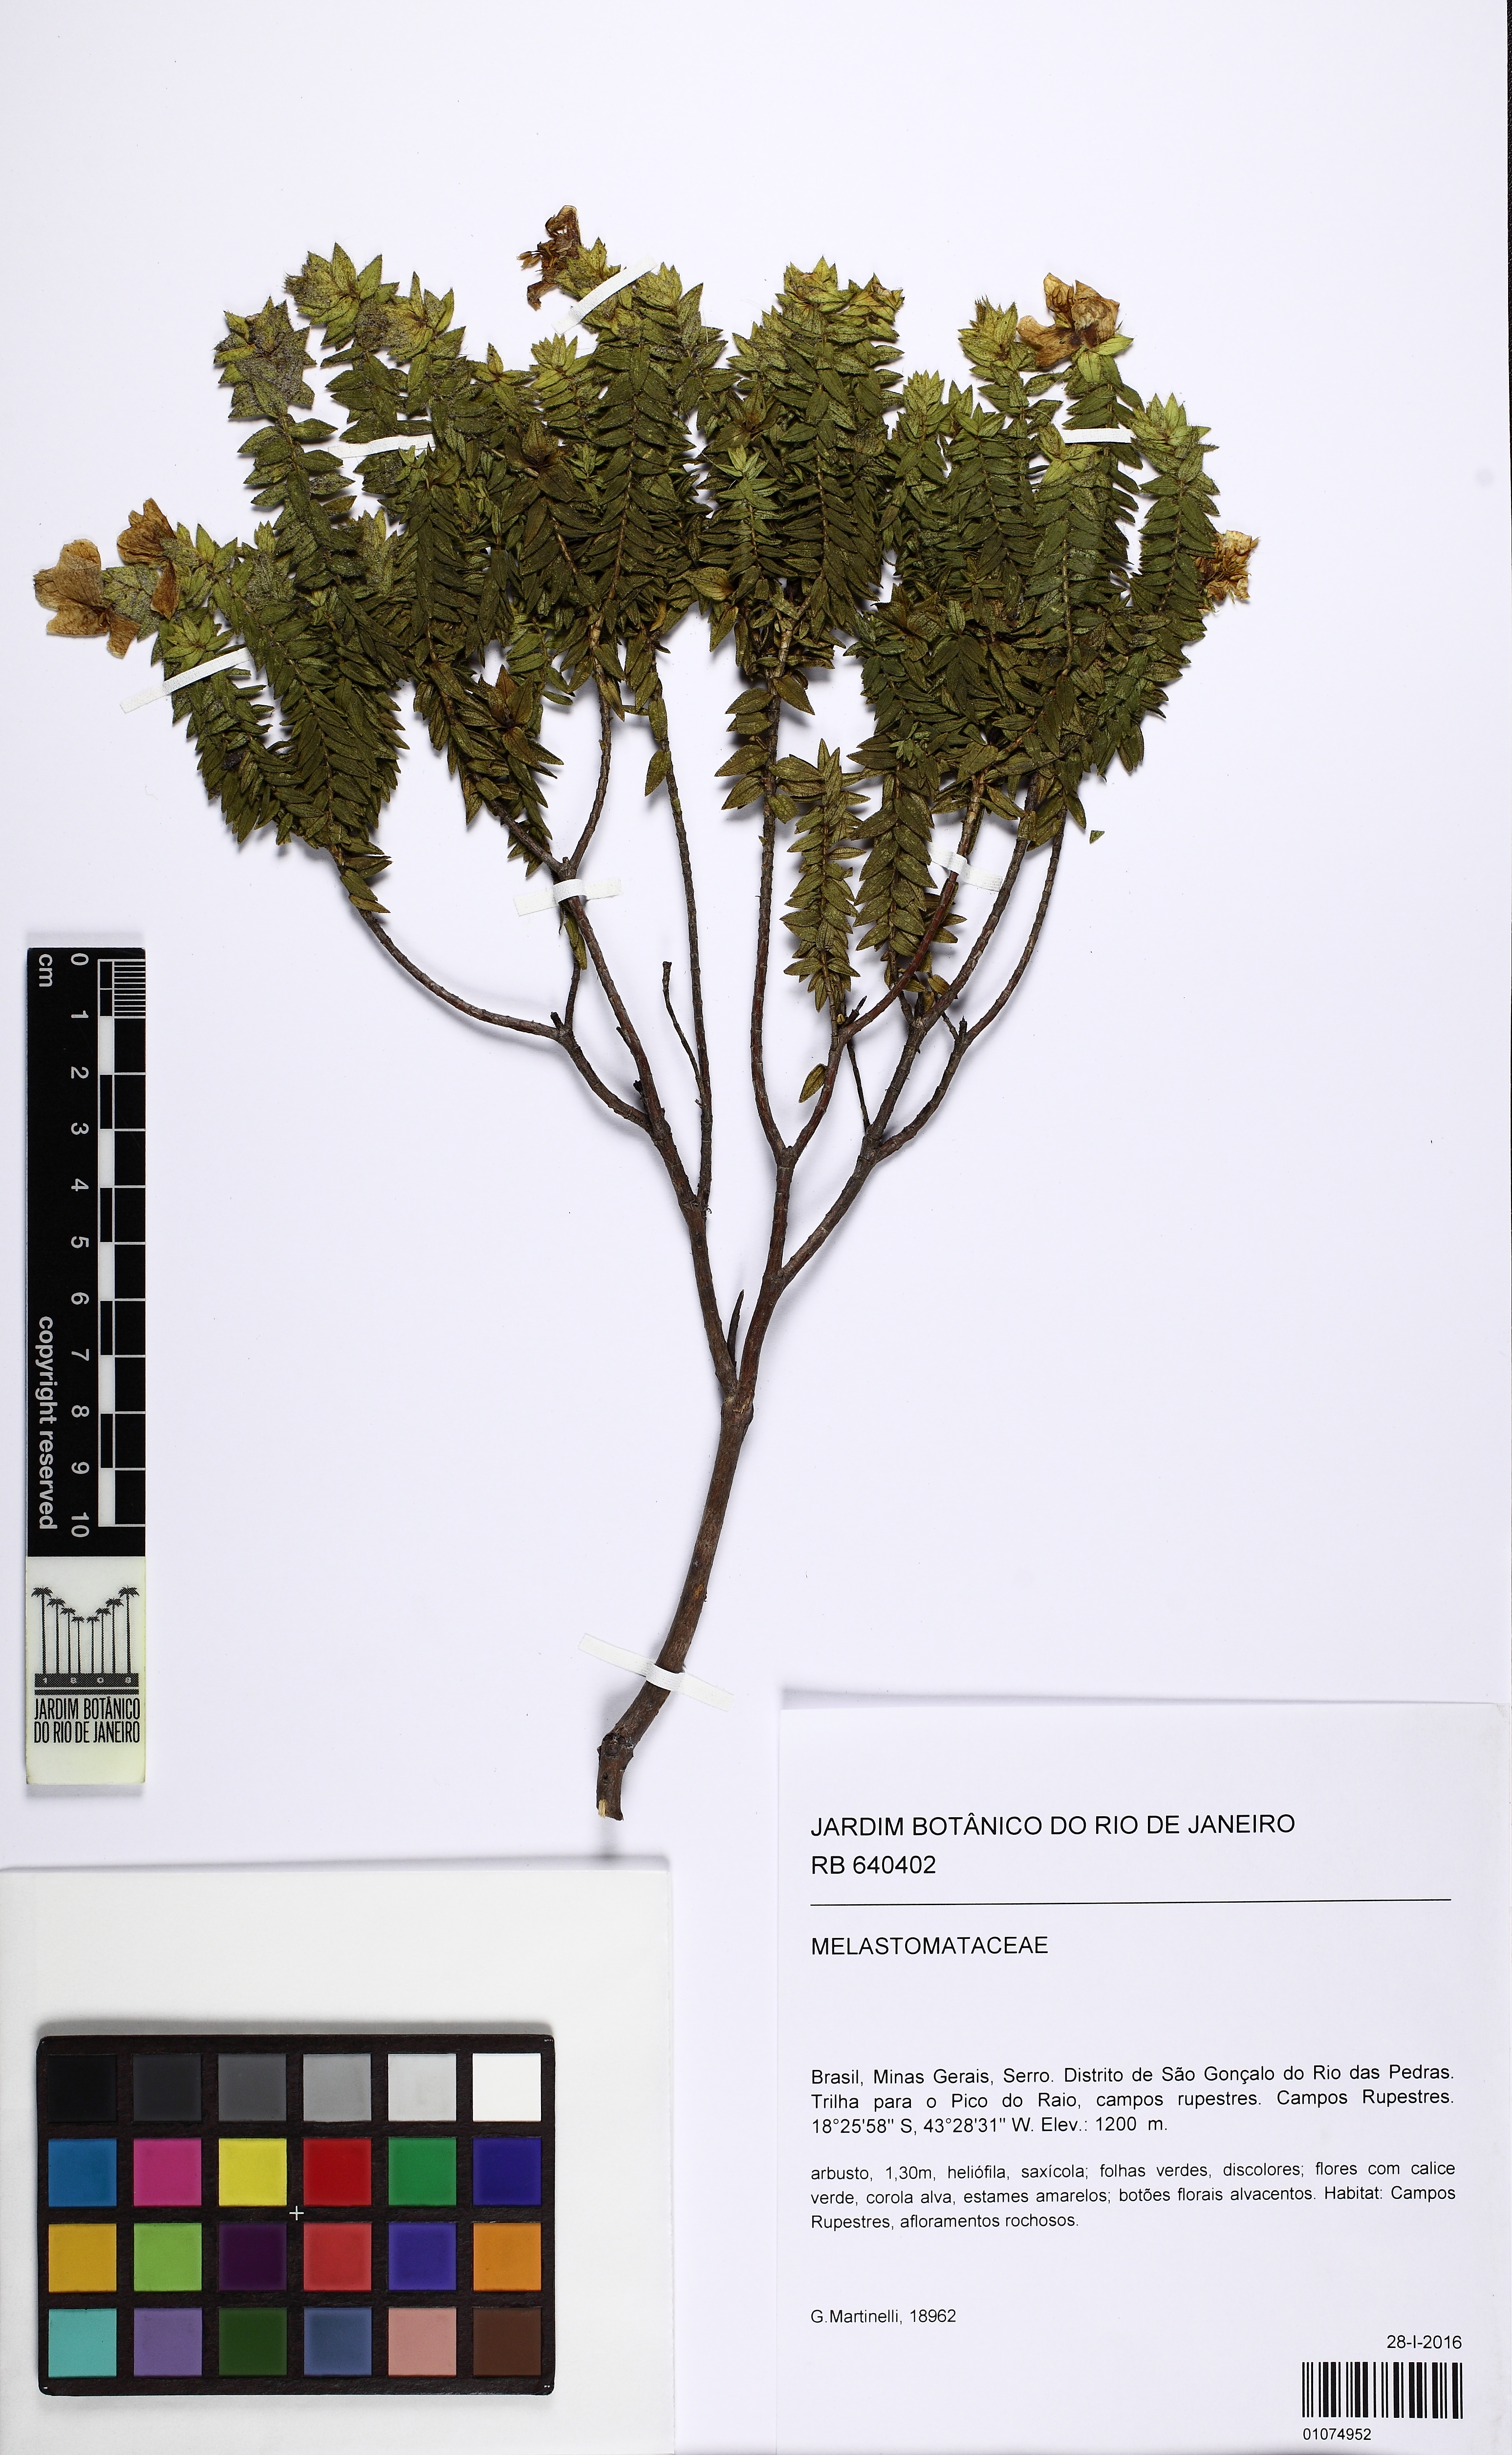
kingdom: Plantae
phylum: Tracheophyta
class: Magnoliopsida
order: Myrtales
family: Melastomataceae
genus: Microlicia
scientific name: Microlicia mucorifera
